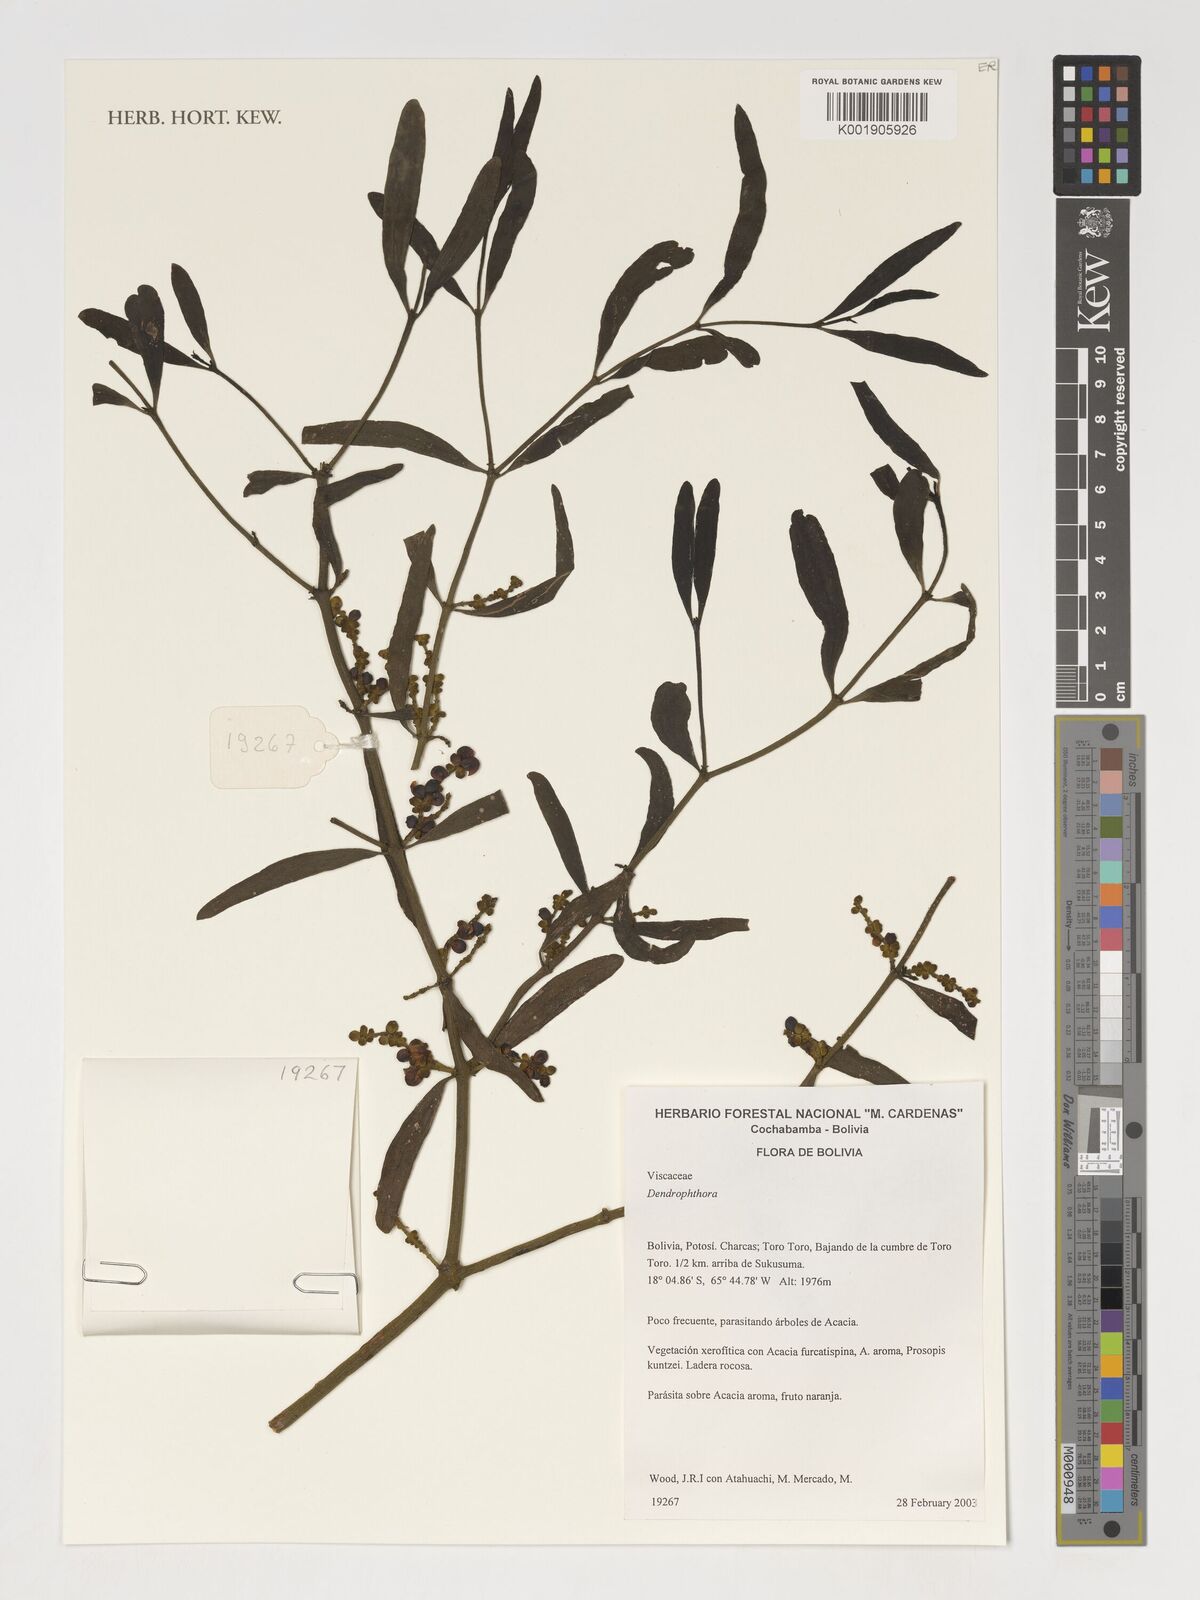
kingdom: Plantae
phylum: Tracheophyta
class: Magnoliopsida
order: Santalales
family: Viscaceae
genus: Dendrophthora
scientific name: Dendrophthora
